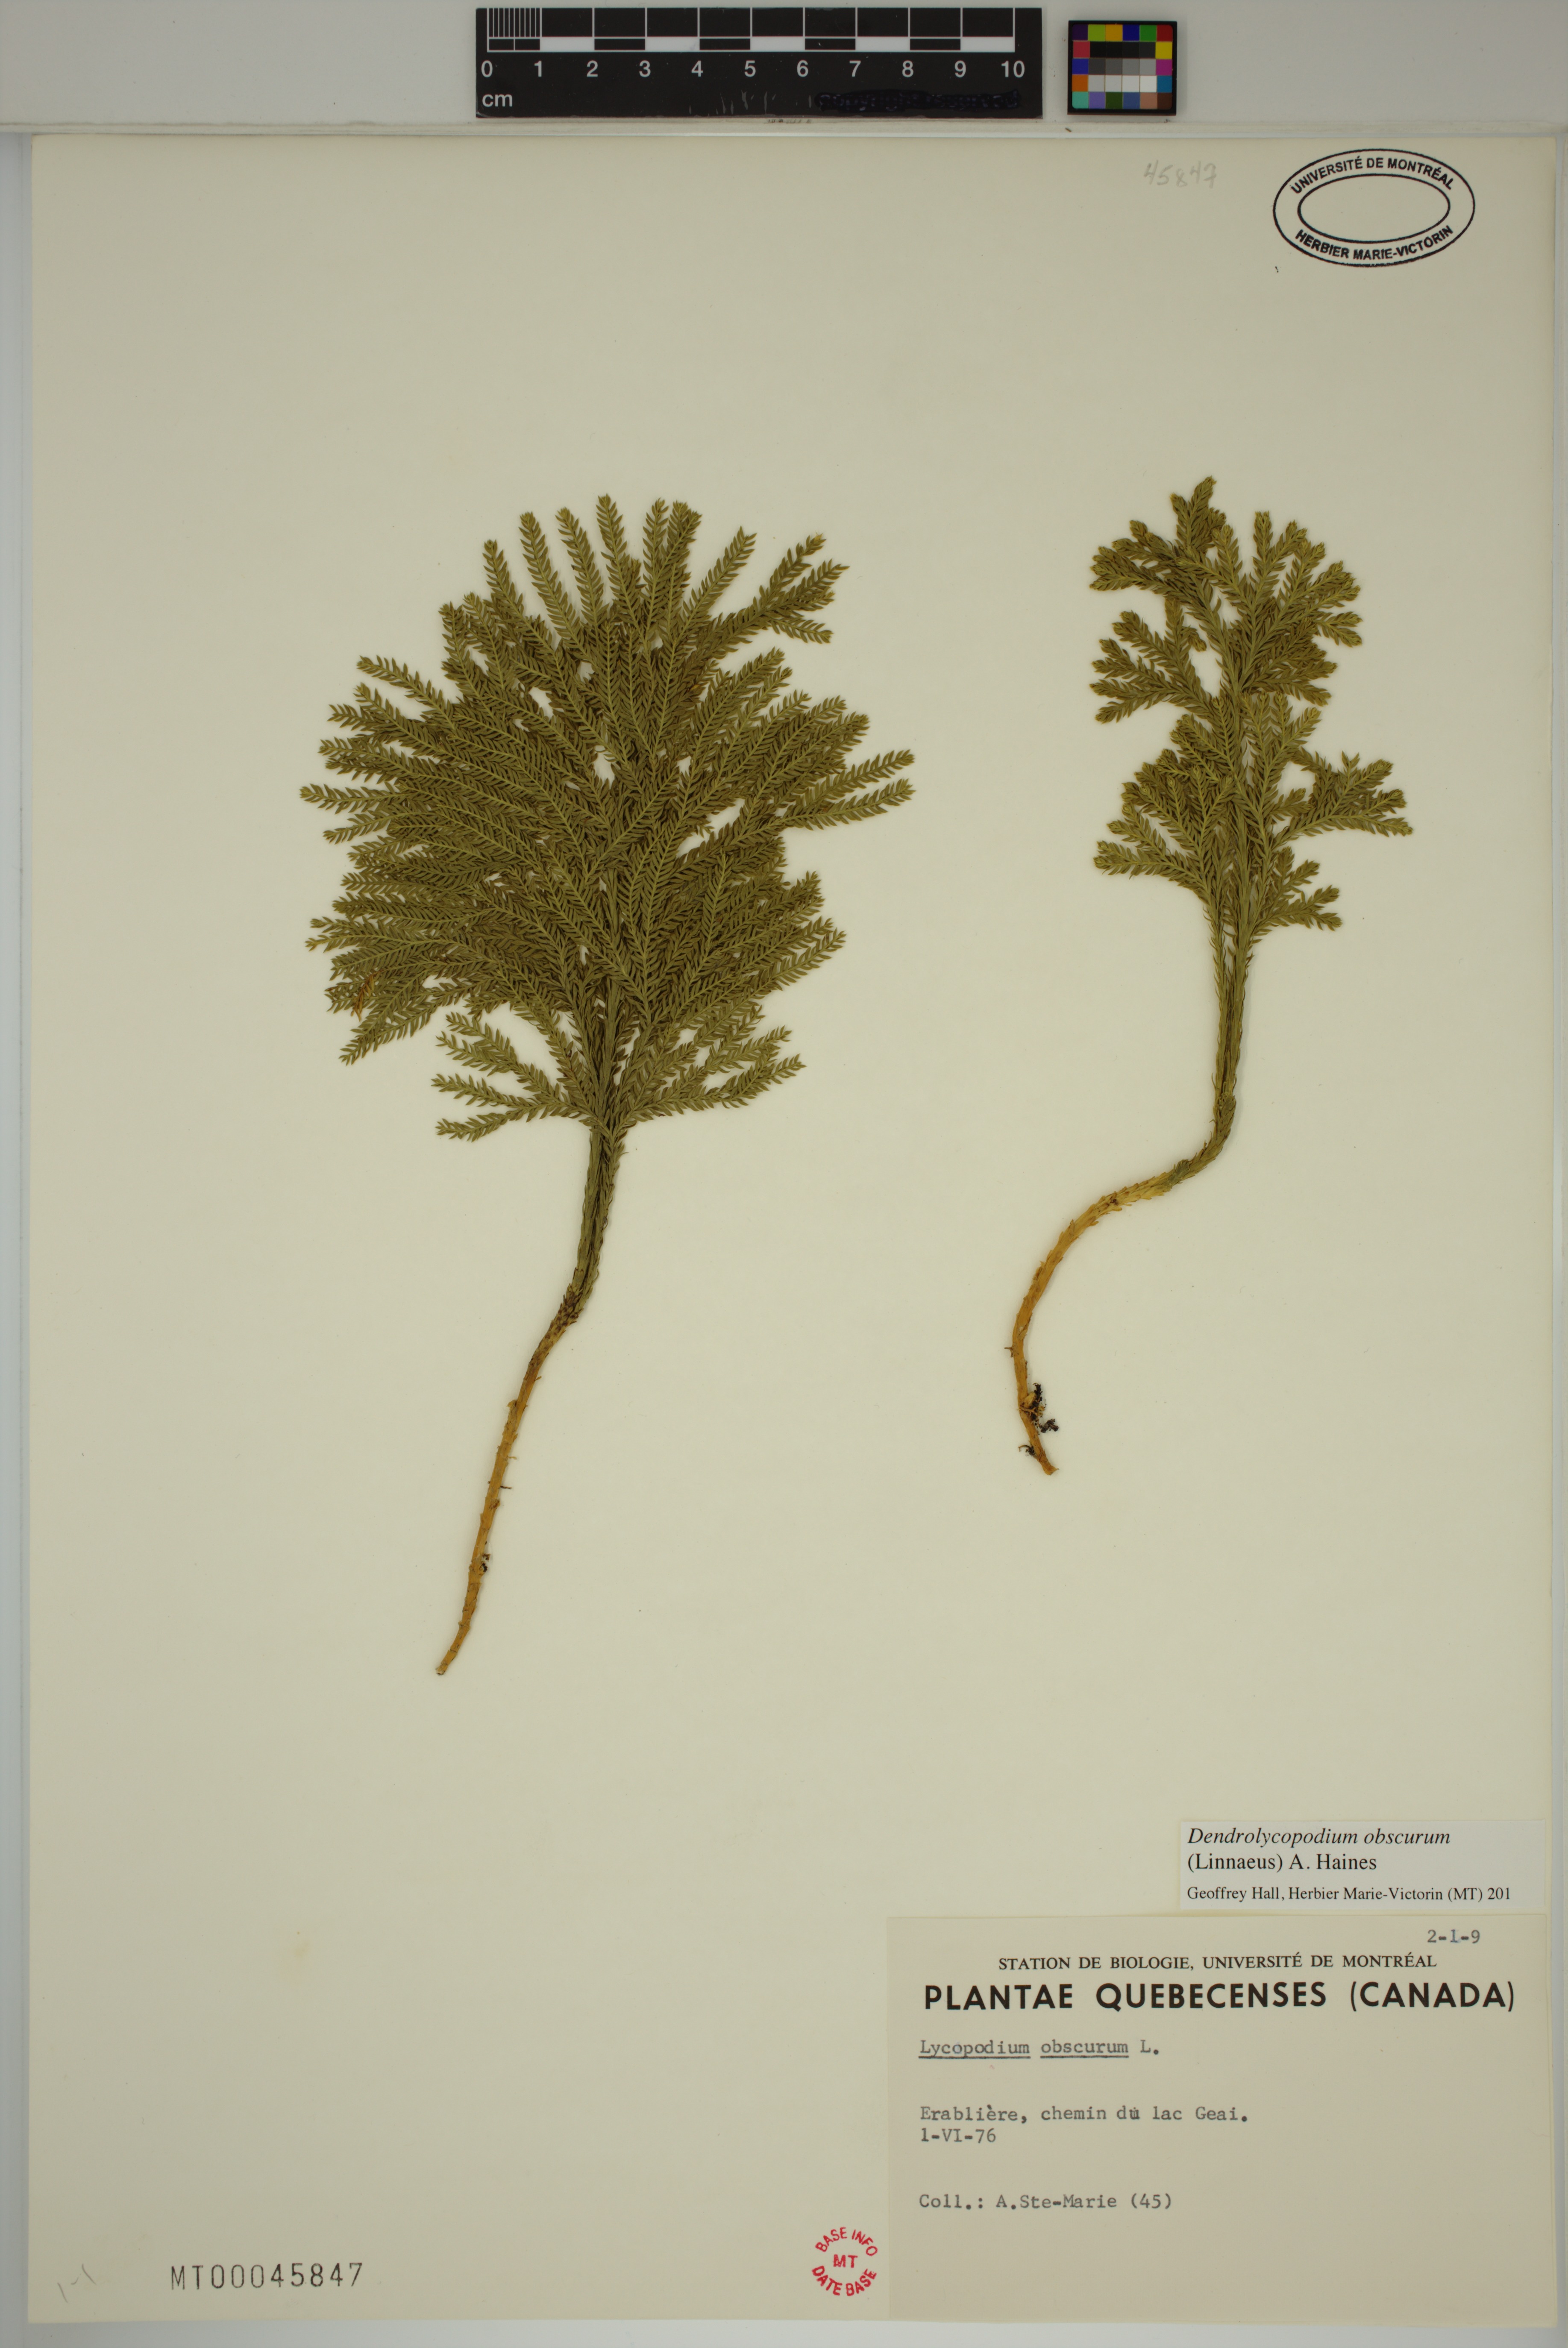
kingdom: Plantae
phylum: Tracheophyta
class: Lycopodiopsida
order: Lycopodiales
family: Lycopodiaceae
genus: Dendrolycopodium
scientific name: Dendrolycopodium obscurum
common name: Common ground-pine
